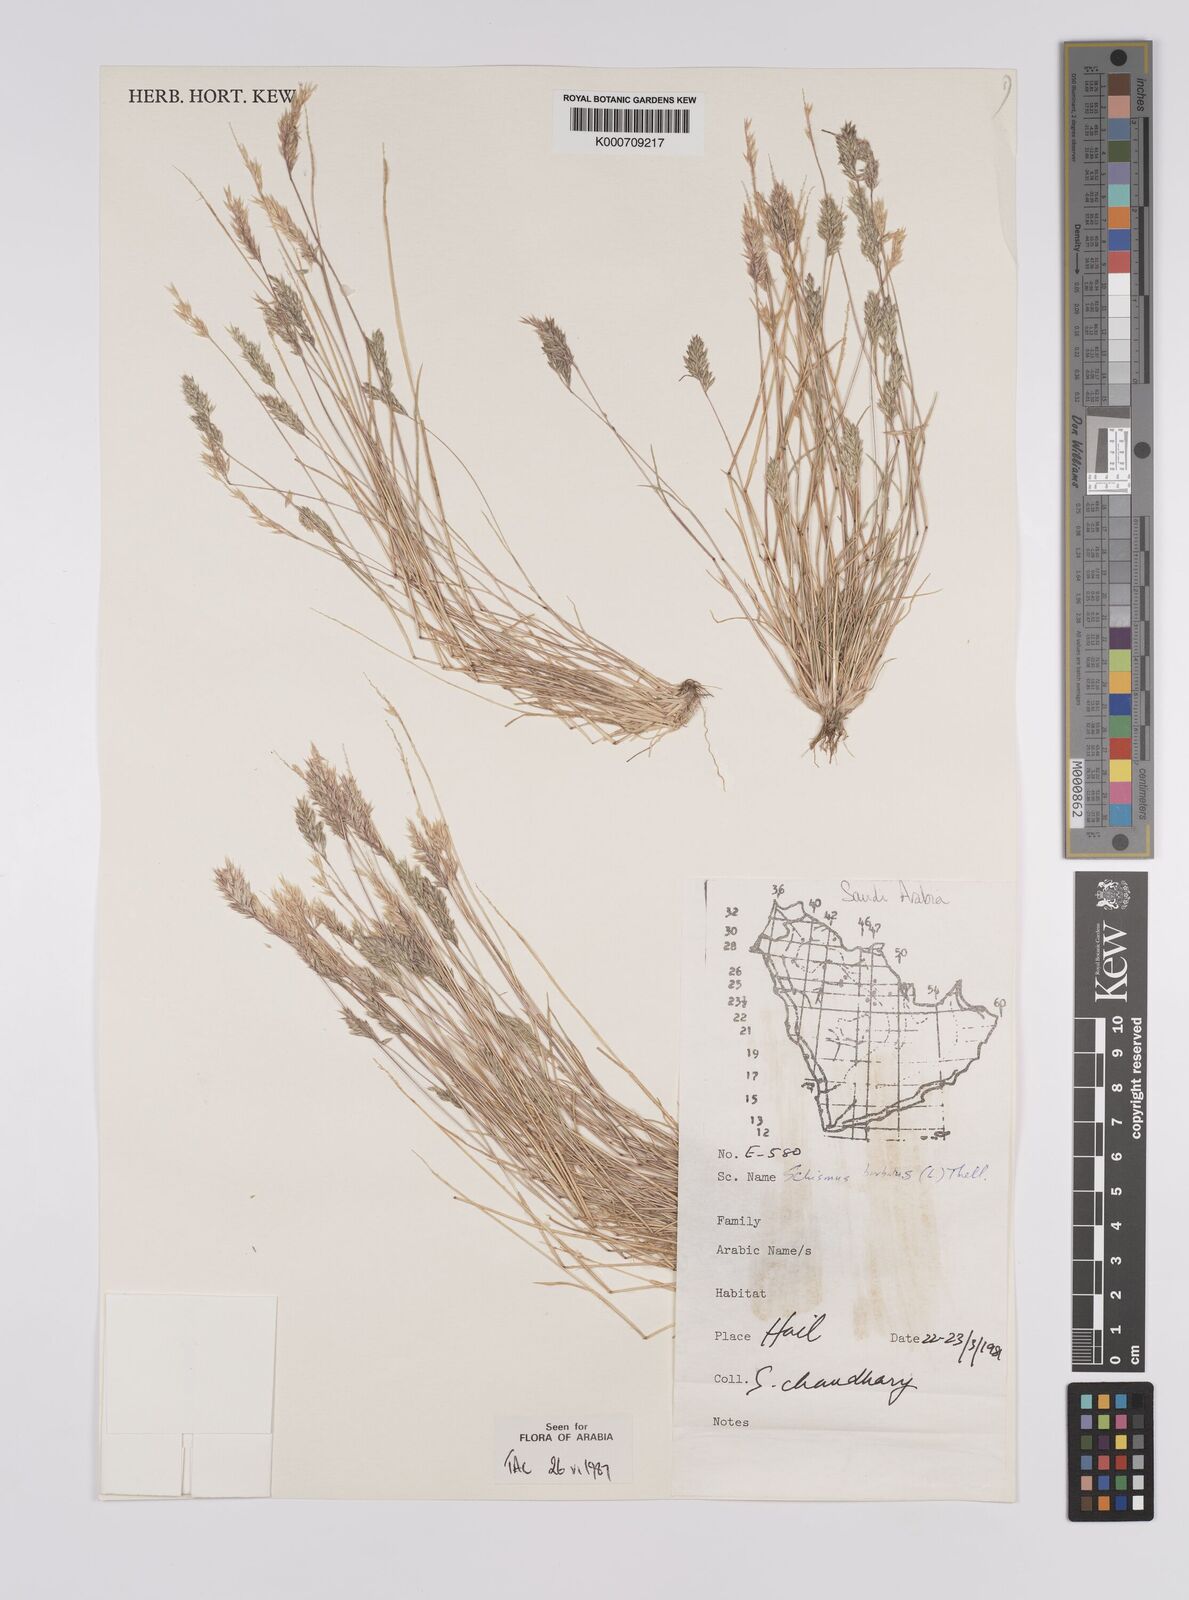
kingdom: Plantae
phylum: Tracheophyta
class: Liliopsida
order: Poales
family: Poaceae
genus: Schismus
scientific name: Schismus barbatus
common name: Kelch-grass
